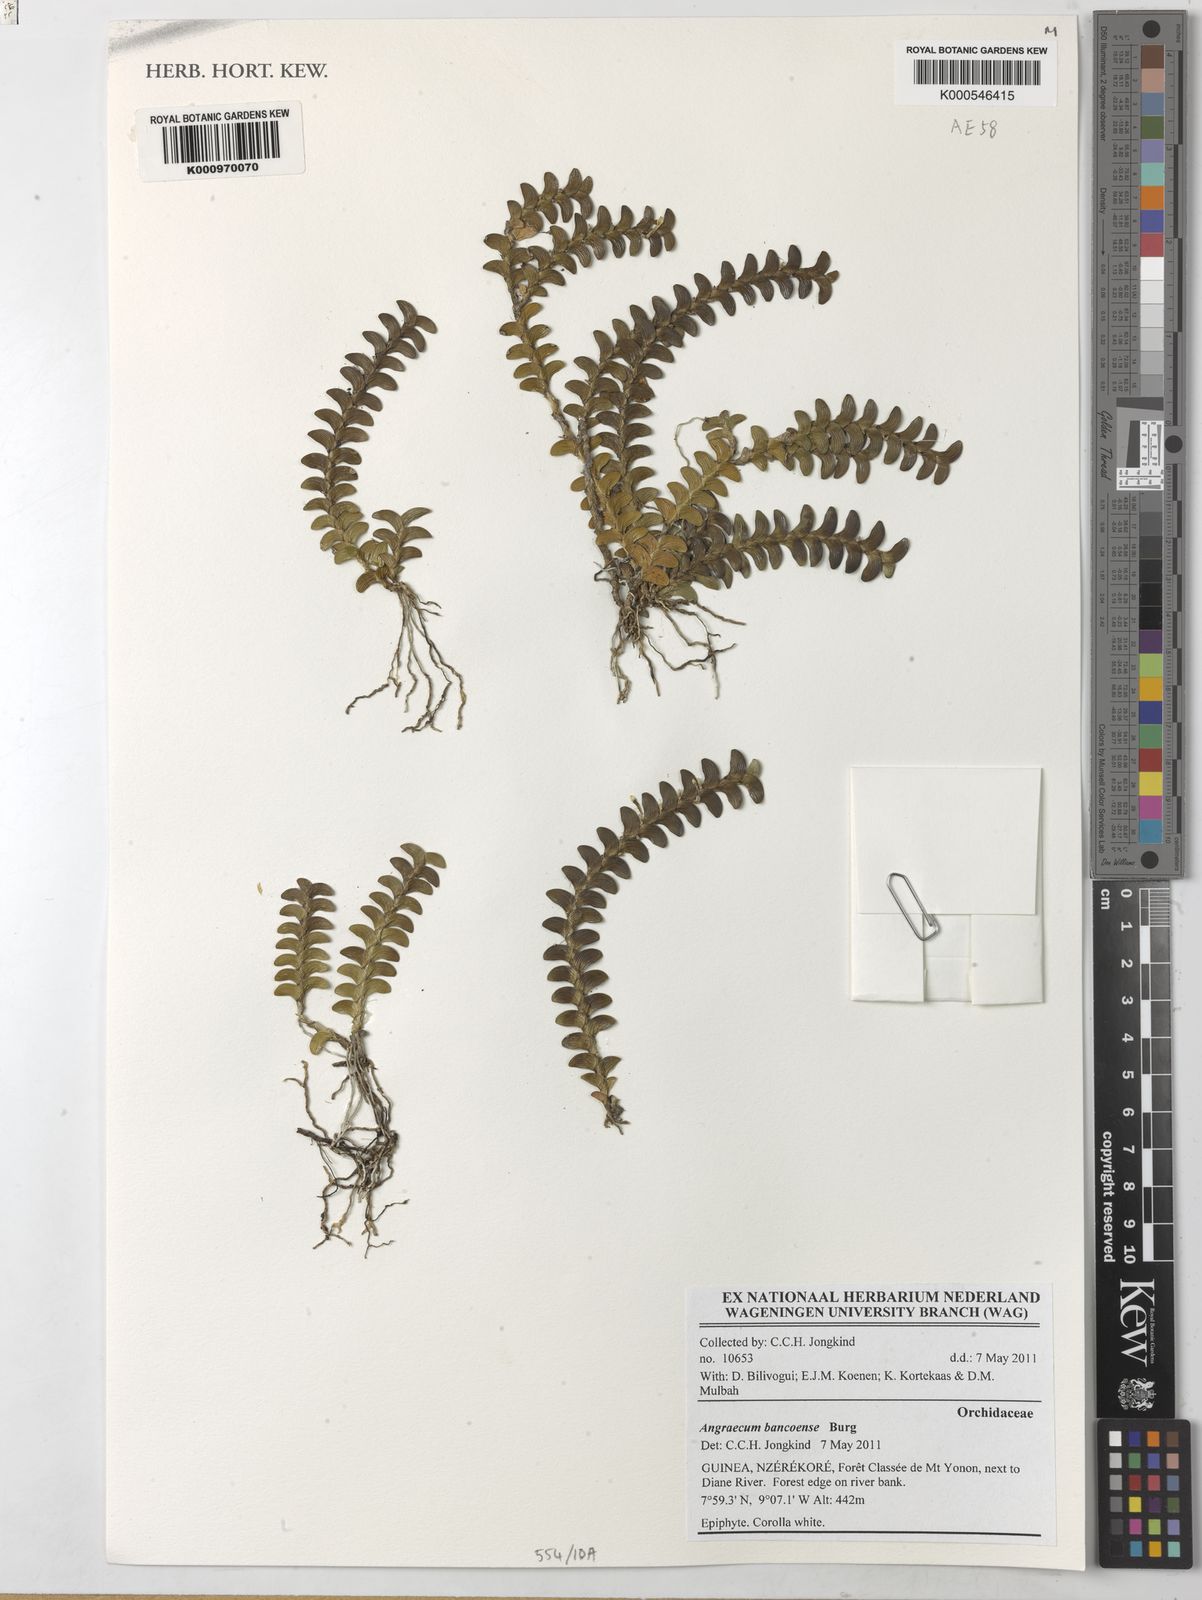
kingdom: Plantae
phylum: Tracheophyta
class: Liliopsida
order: Asparagales
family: Orchidaceae
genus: Angraecum
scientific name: Angraecum bancoense
